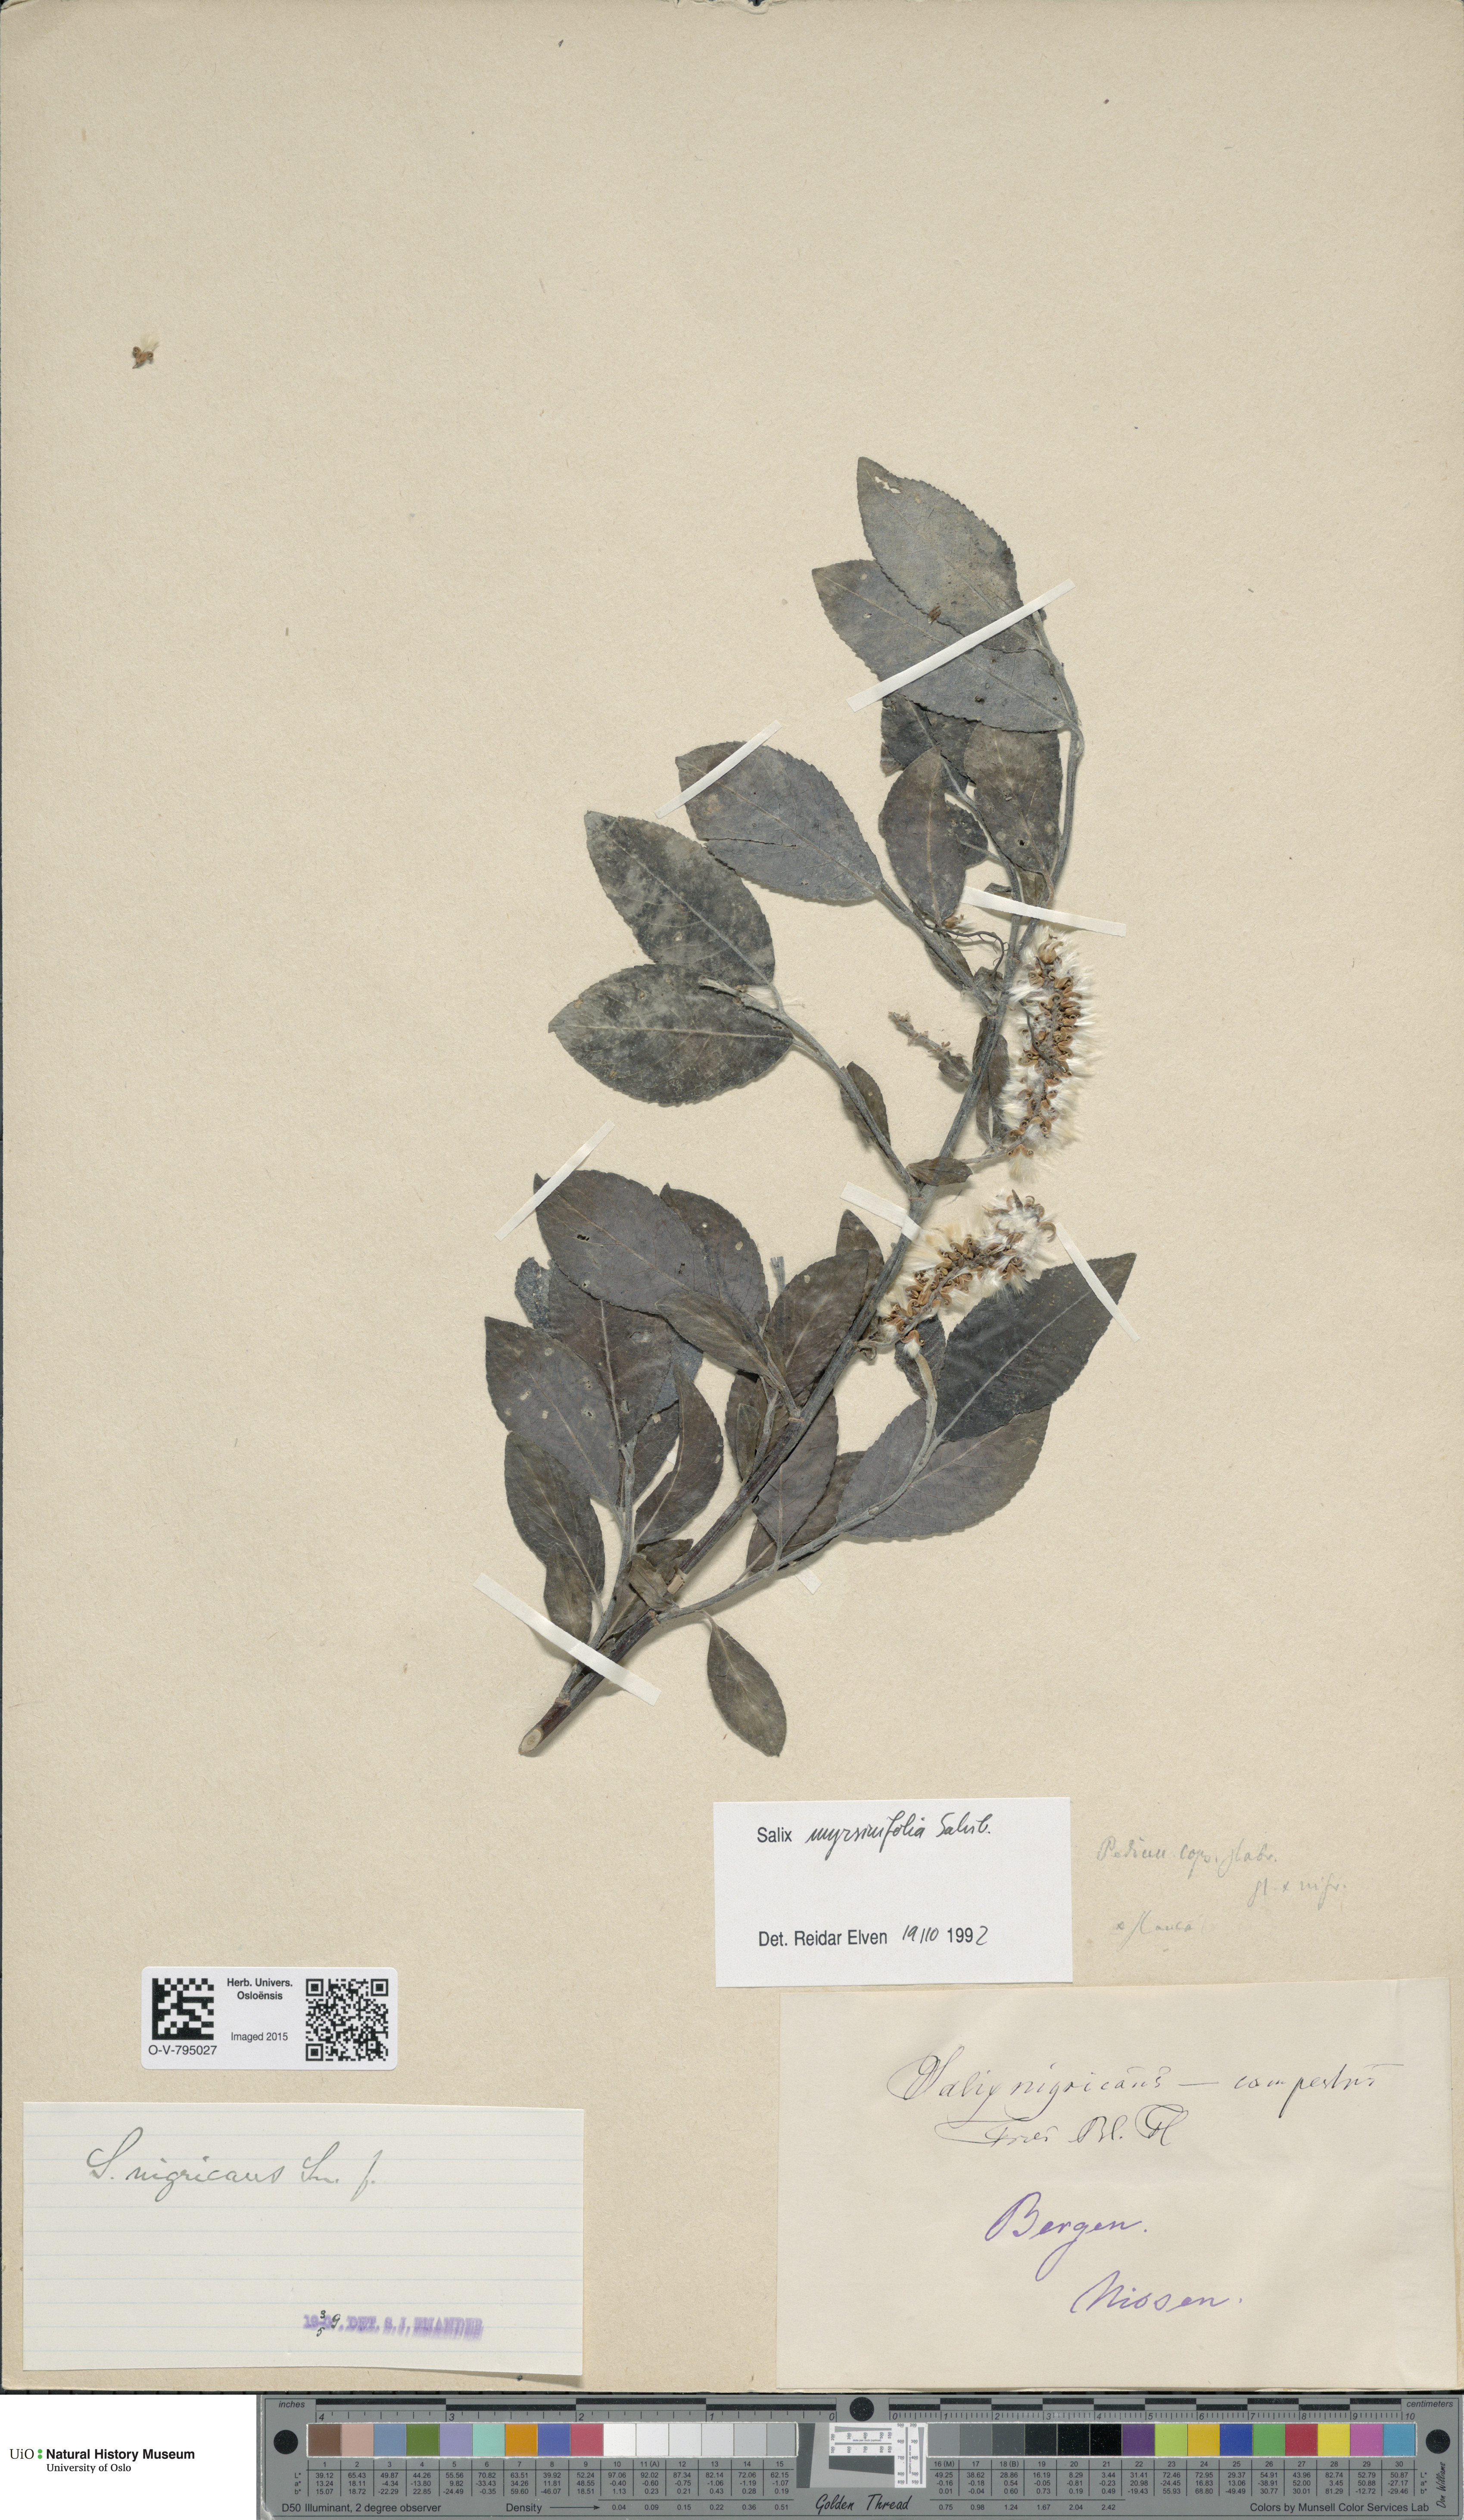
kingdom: Plantae
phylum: Tracheophyta
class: Magnoliopsida
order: Malpighiales
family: Salicaceae
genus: Salix
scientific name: Salix myrsinifolia
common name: Dark-leaved willow
